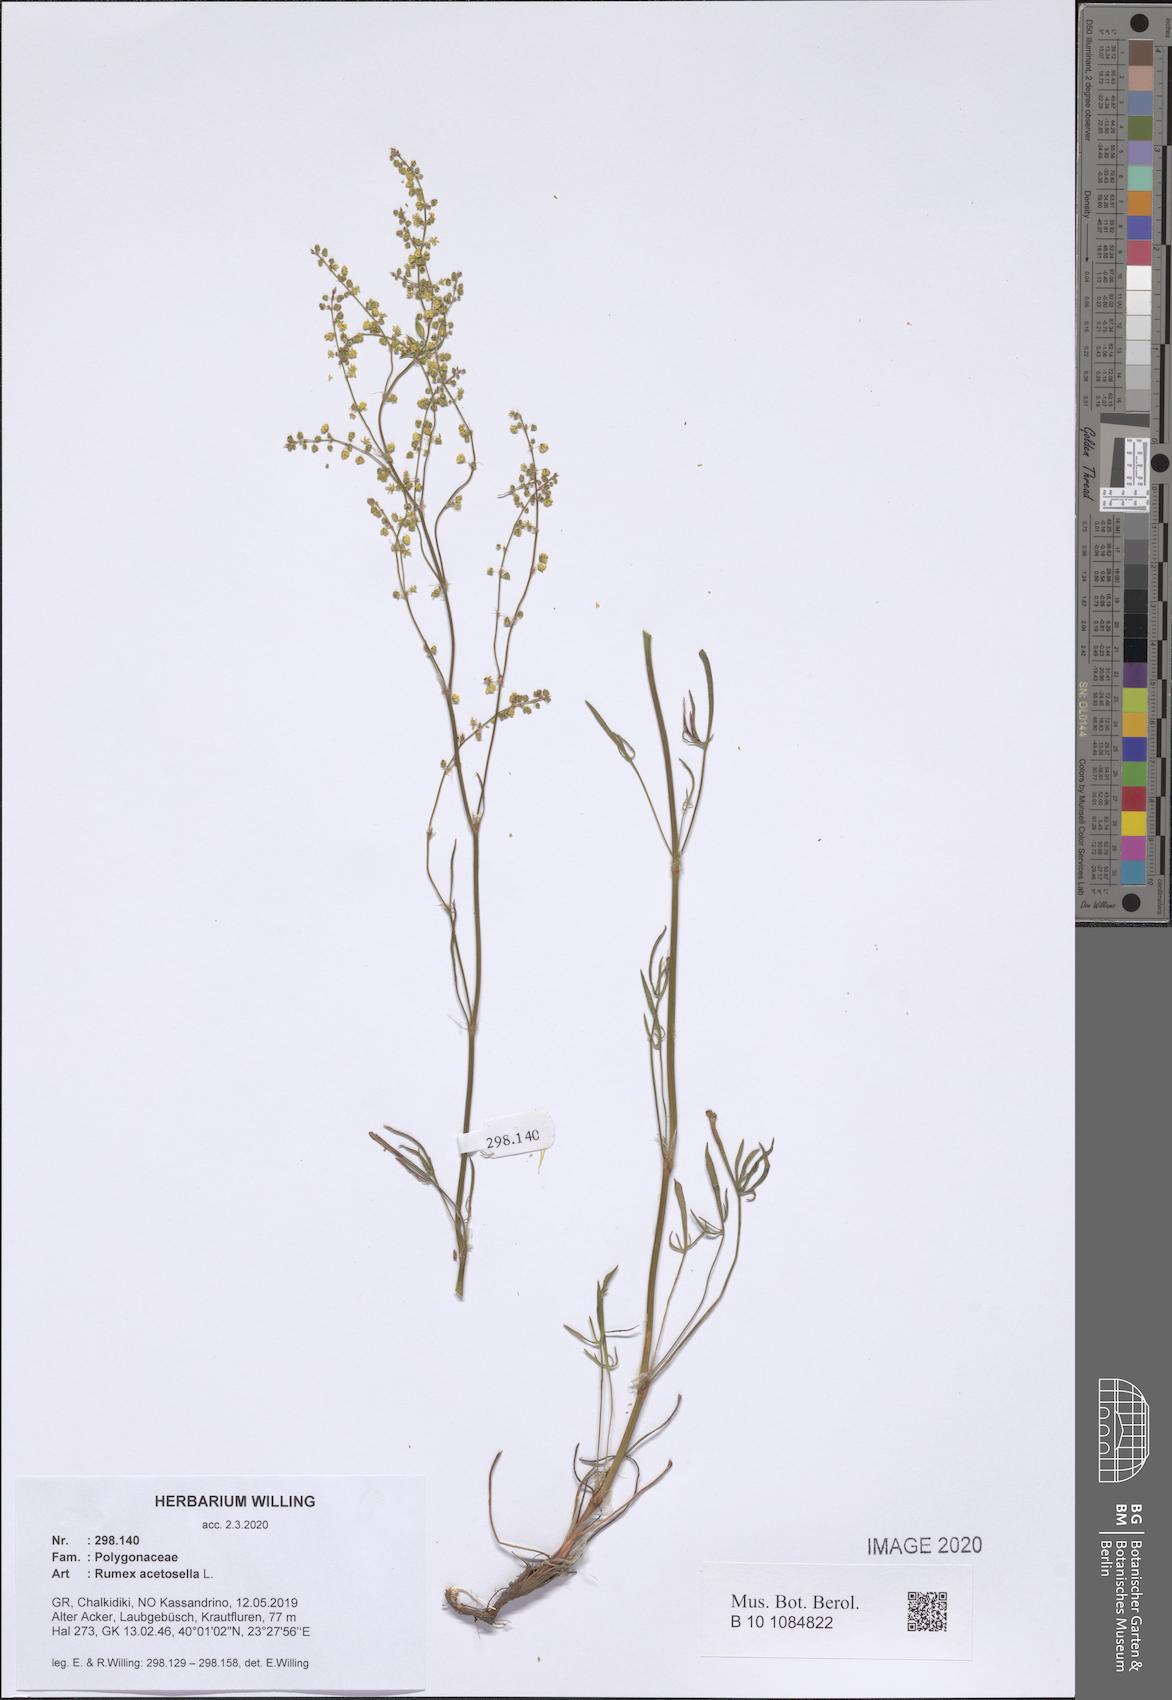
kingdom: Plantae
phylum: Tracheophyta
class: Magnoliopsida
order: Caryophyllales
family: Polygonaceae
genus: Rumex
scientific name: Rumex acetosella
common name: Common sheep sorrel
